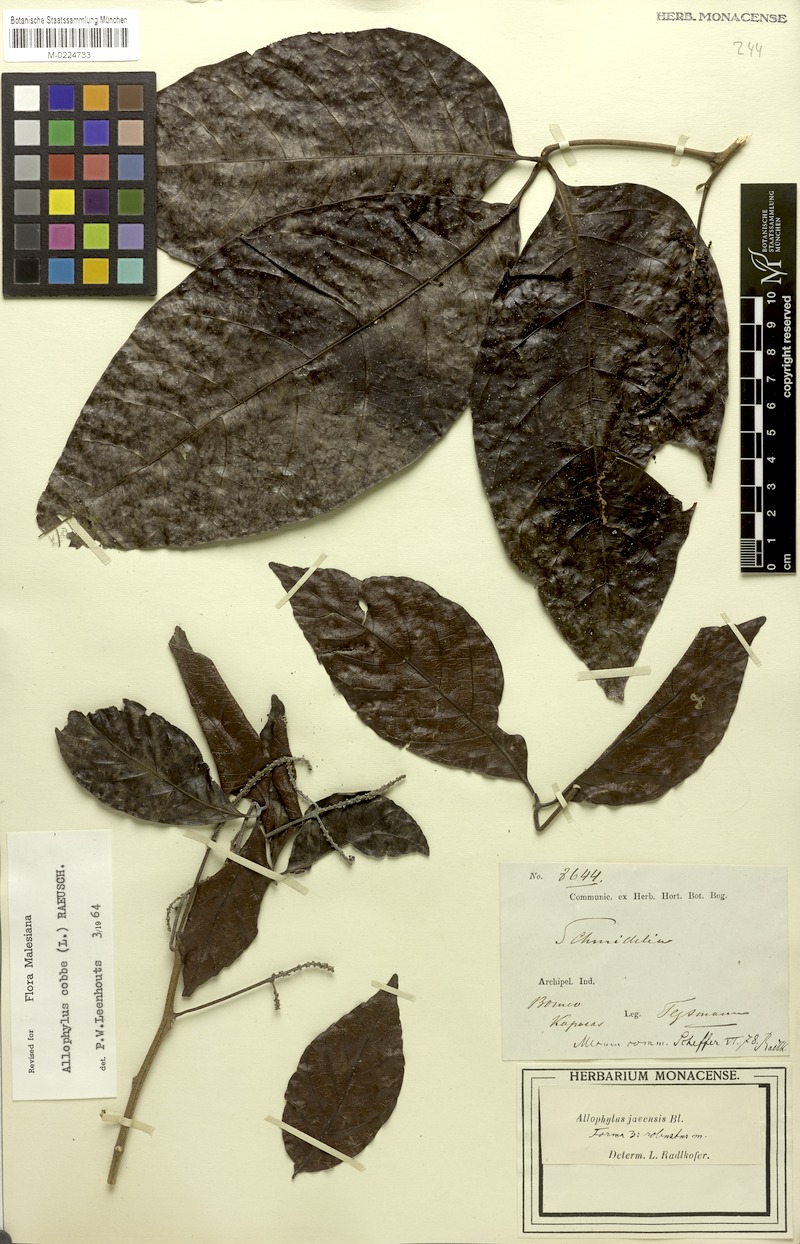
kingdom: Plantae
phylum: Tracheophyta
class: Magnoliopsida
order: Sapindales
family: Sapindaceae
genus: Allophylus
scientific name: Allophylus javensis
